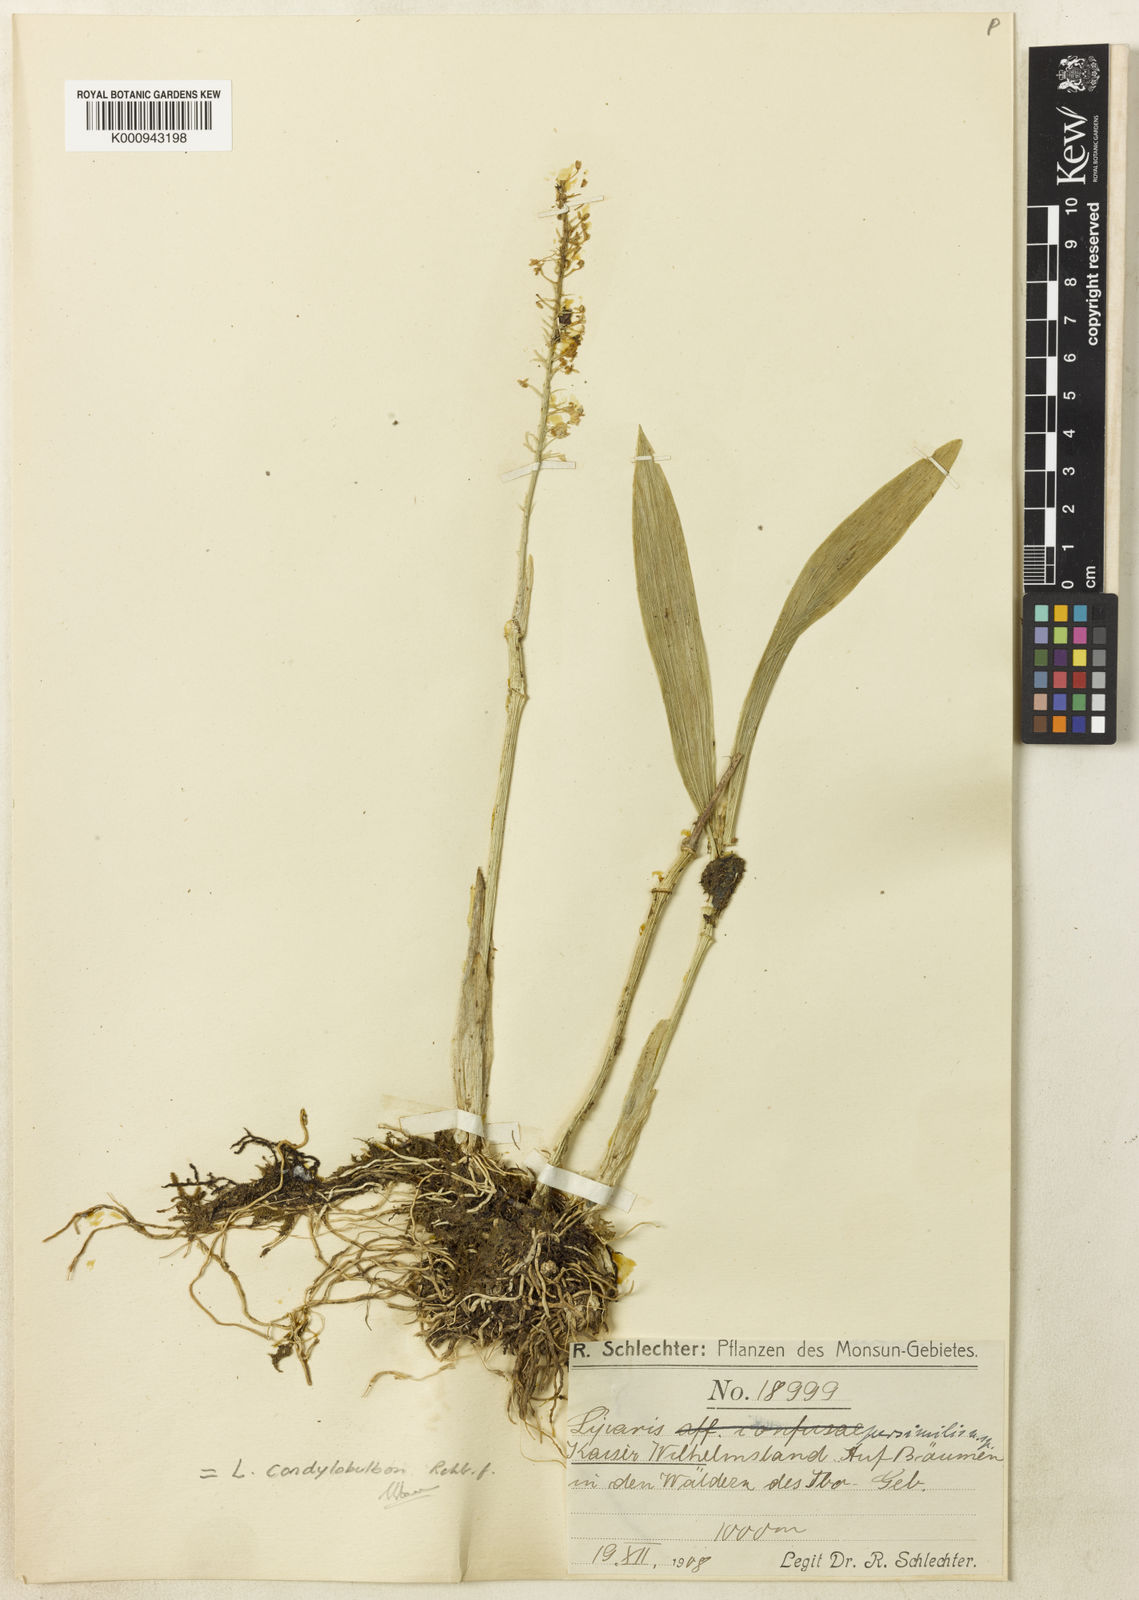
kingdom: Plantae
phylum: Tracheophyta
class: Liliopsida
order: Asparagales
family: Orchidaceae
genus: Liparis
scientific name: Liparis condylobulbon
